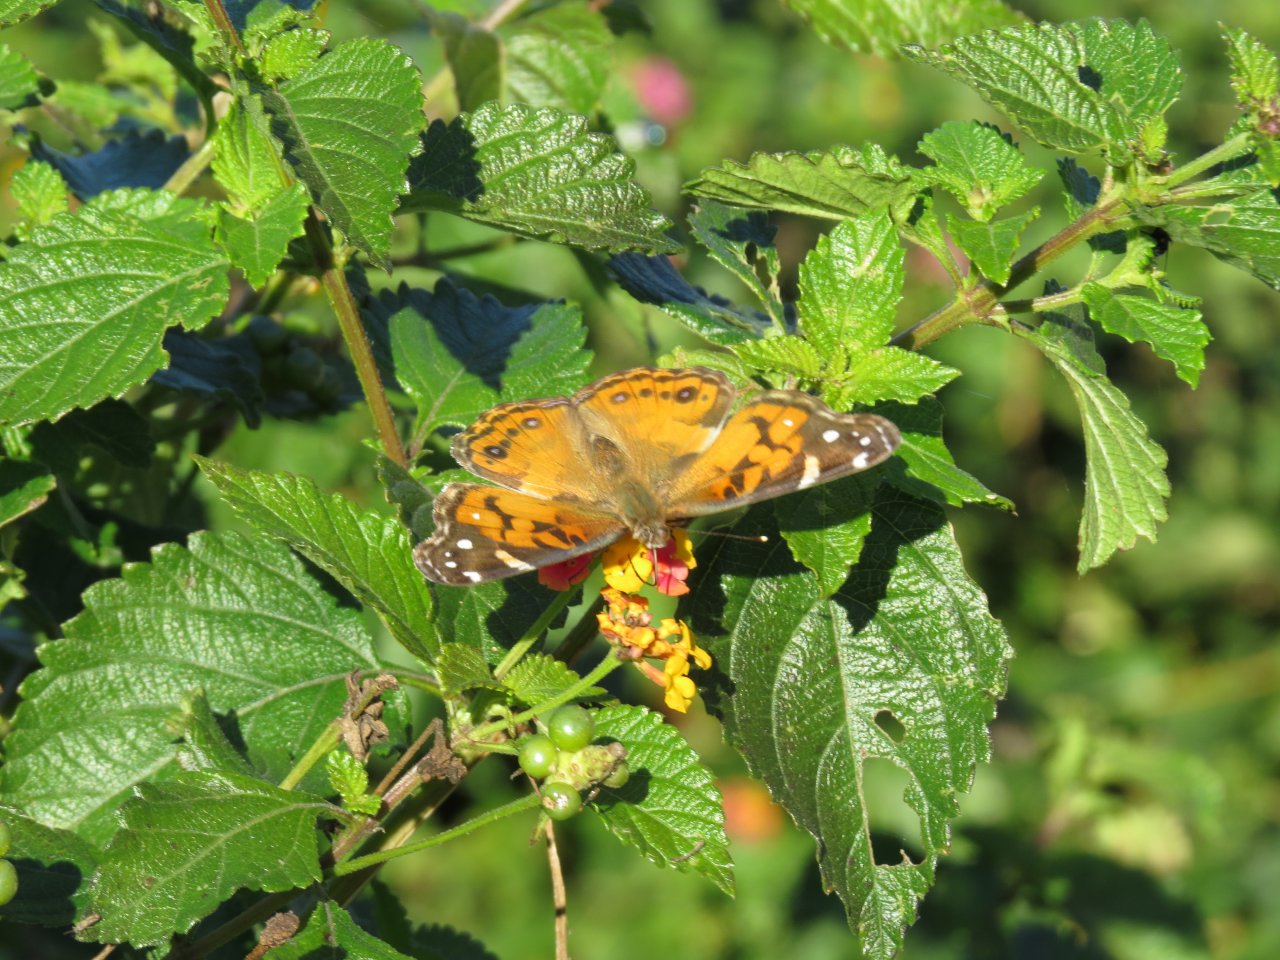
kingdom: Animalia
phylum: Arthropoda
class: Insecta
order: Lepidoptera
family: Nymphalidae
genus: Vanessa
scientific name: Vanessa virginiensis
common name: American Lady
